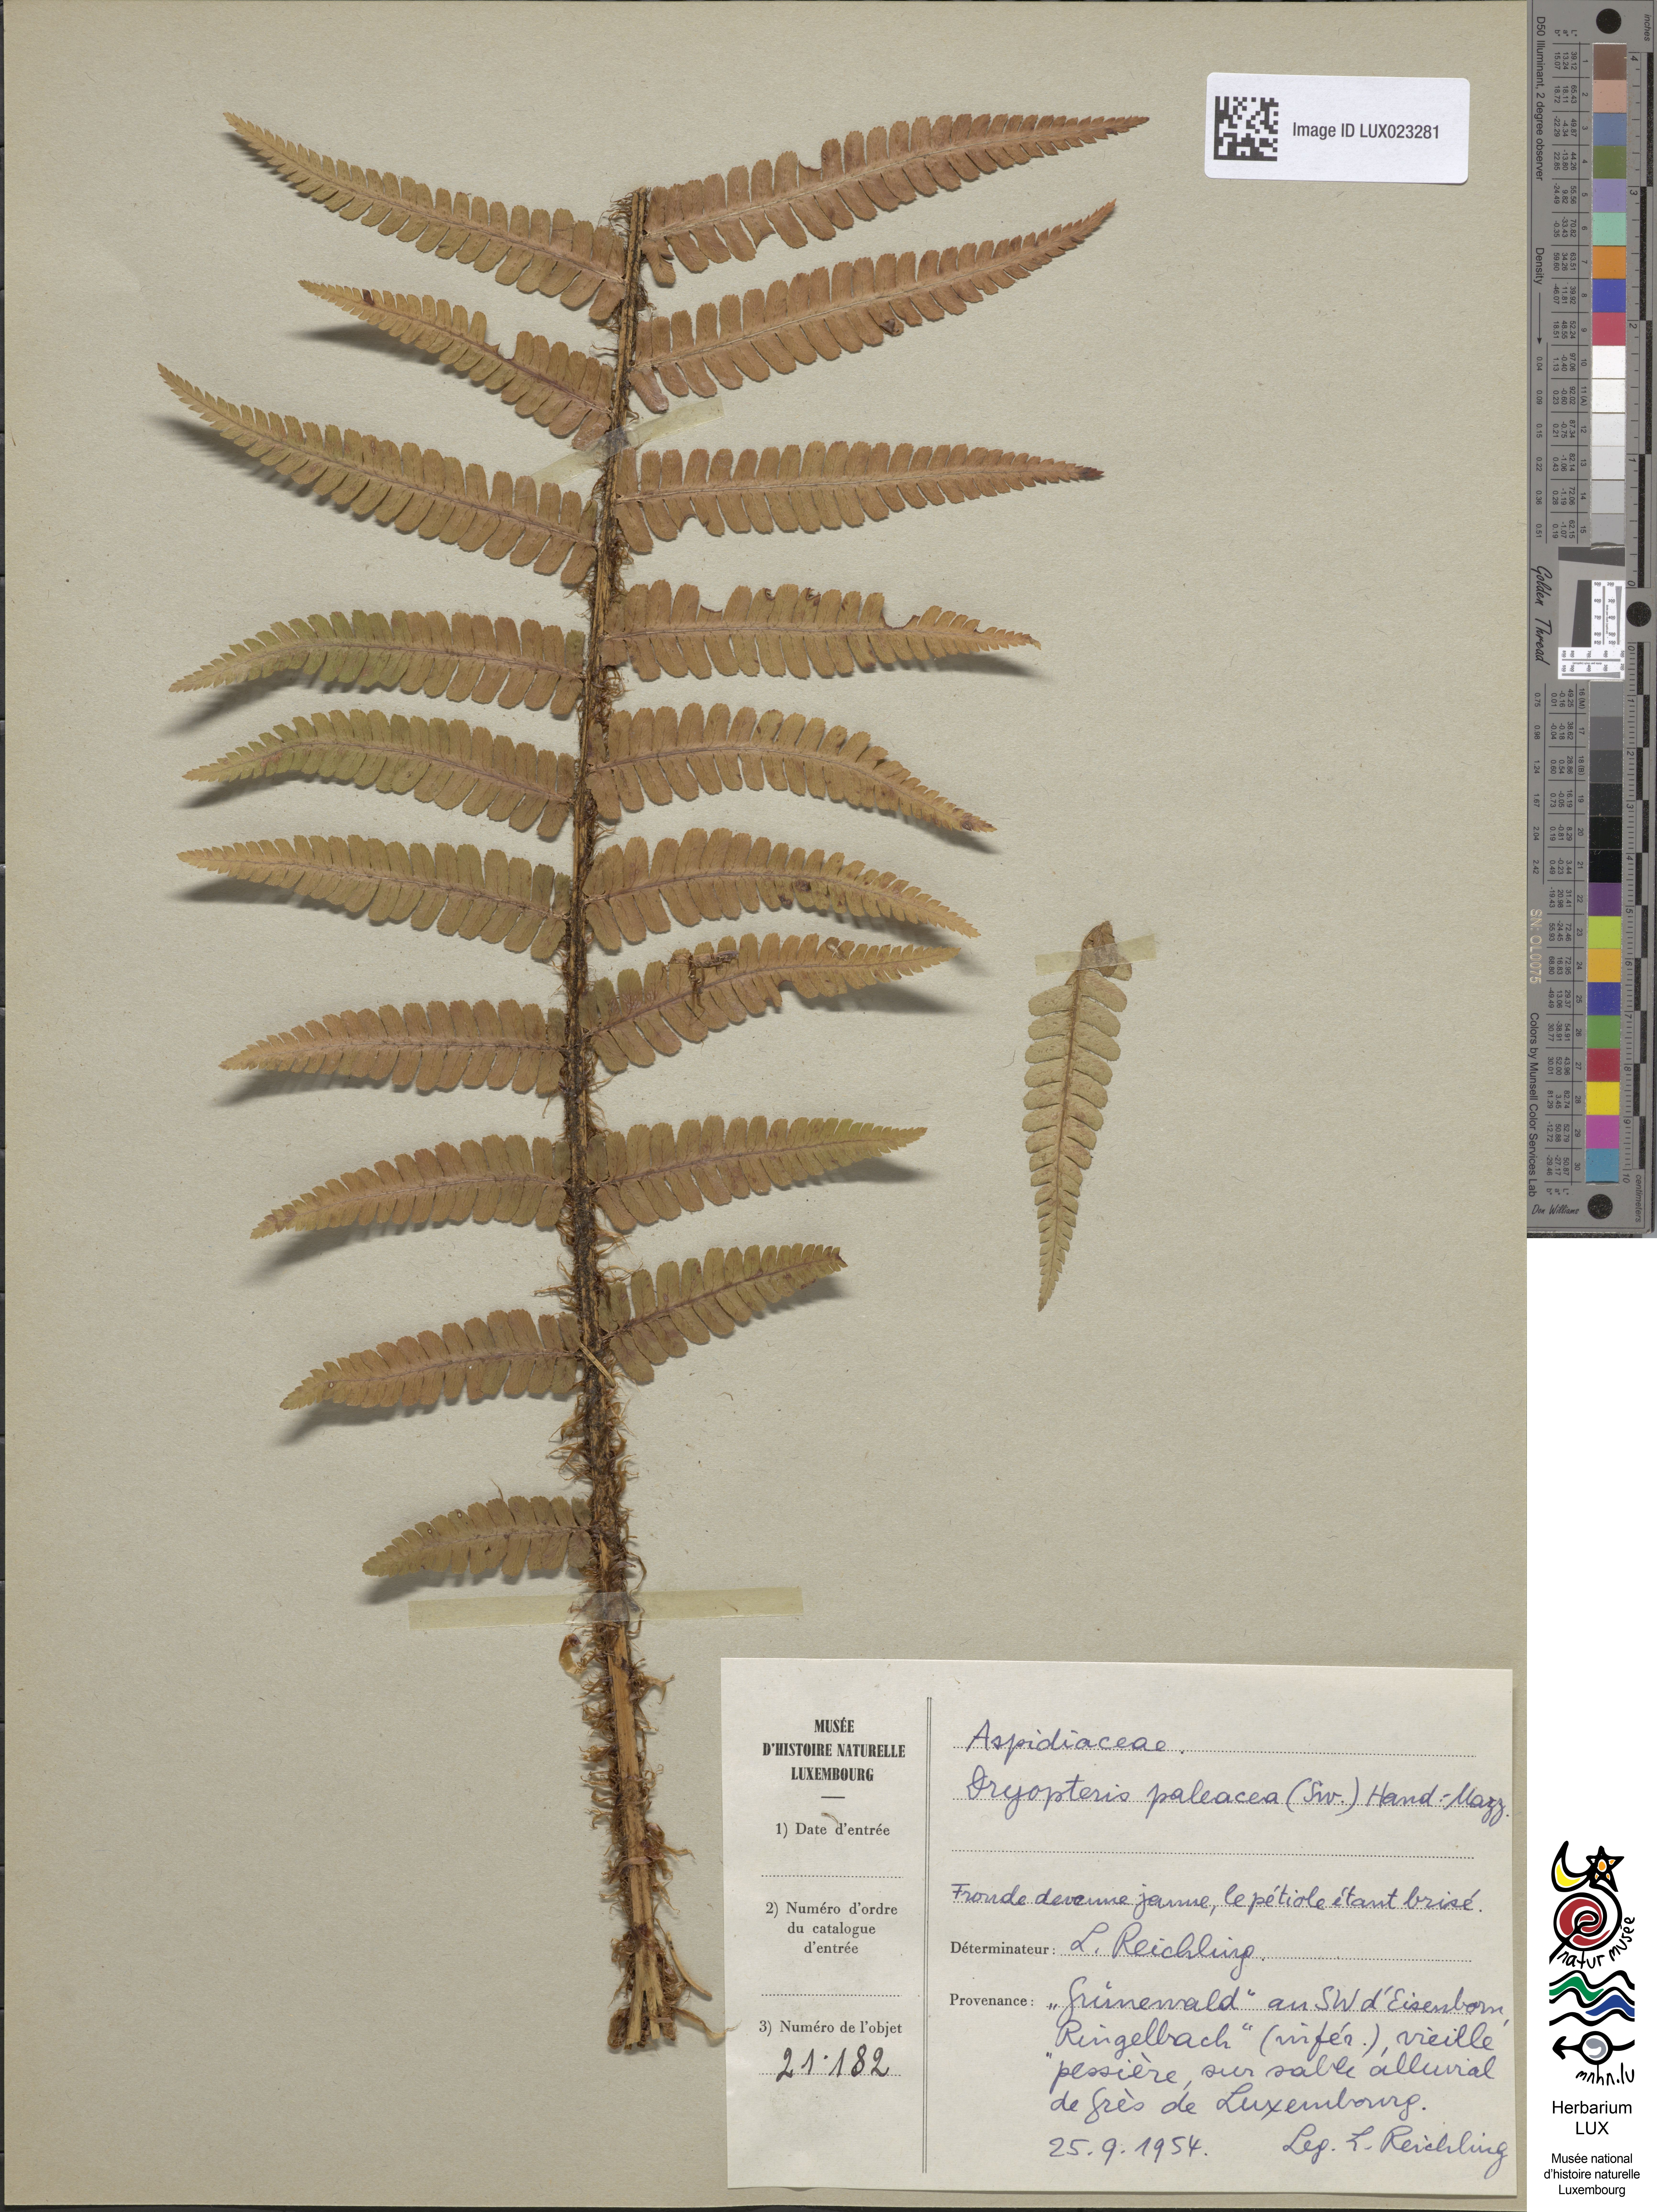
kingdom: Plantae
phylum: Tracheophyta
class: Polypodiopsida
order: Polypodiales
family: Dryopteridaceae
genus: Dryopteris
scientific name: Dryopteris borreri
